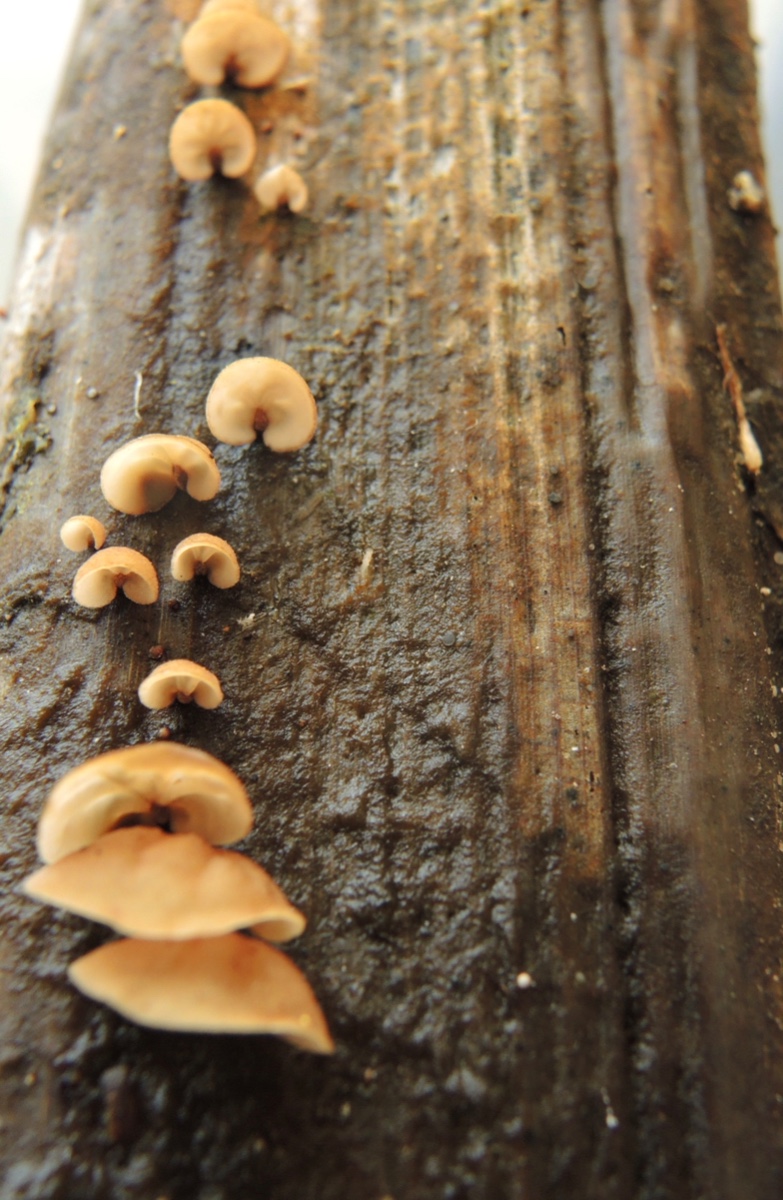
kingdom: Fungi
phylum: Basidiomycota
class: Agaricomycetes
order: Agaricales
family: Physalacriaceae
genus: Gloiocephala
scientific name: Gloiocephala menieri
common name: dunhammer-spatelhat
